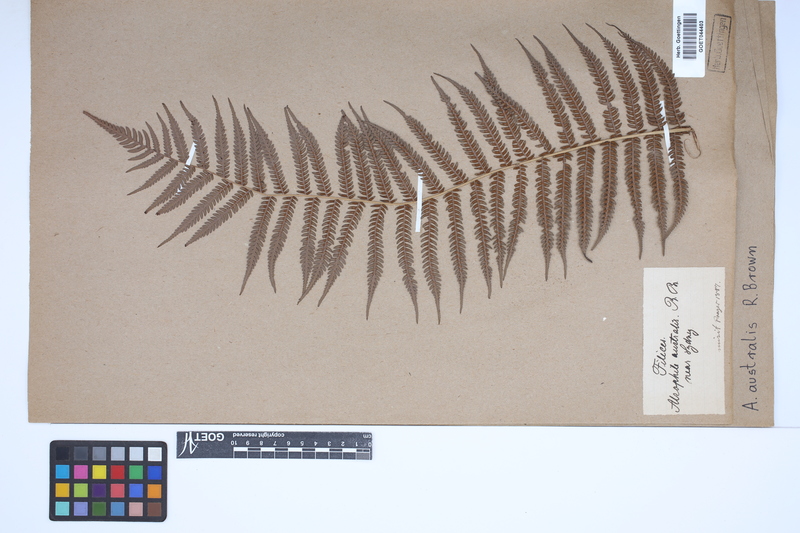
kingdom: Plantae
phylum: Tracheophyta
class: Polypodiopsida
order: Cyatheales
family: Cyatheaceae
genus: Alsophila
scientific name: Alsophila australis
